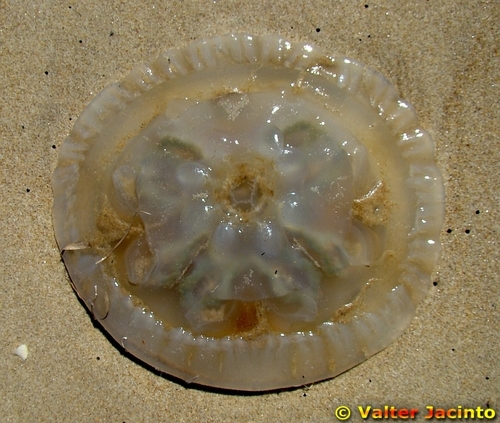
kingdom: Animalia
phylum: Cnidaria
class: Scyphozoa
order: Rhizostomeae
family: Catostylidae
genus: Catostylus
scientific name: Catostylus tagi
